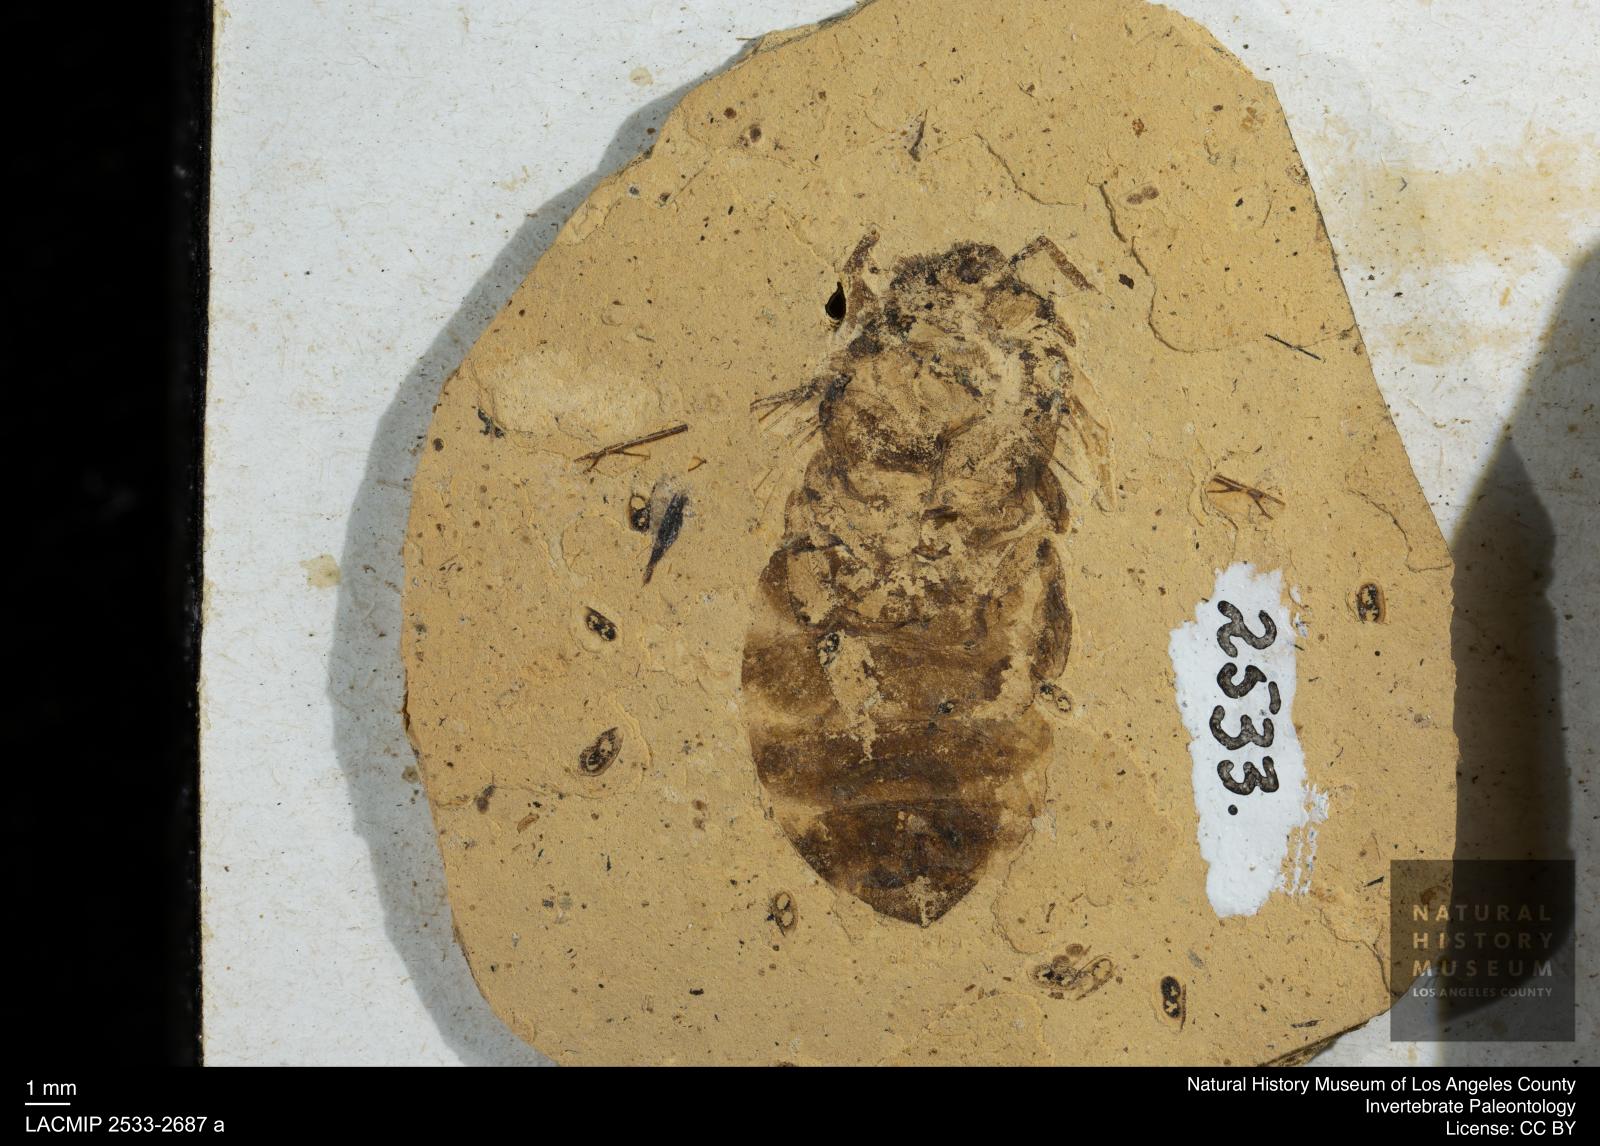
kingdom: Animalia
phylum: Arthropoda
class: Insecta
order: Hymenoptera
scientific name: Hymenoptera
